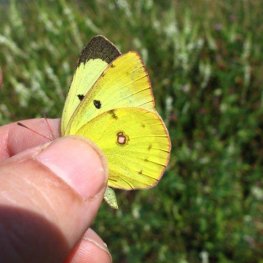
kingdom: Animalia
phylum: Arthropoda
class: Insecta
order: Lepidoptera
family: Pieridae
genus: Colias
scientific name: Colias philodice
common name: Clouded Sulphur
